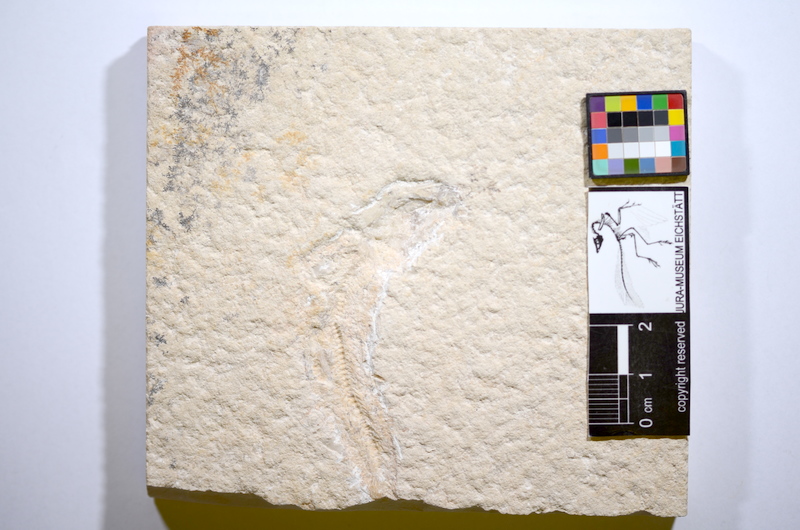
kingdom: Animalia
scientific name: Animalia
